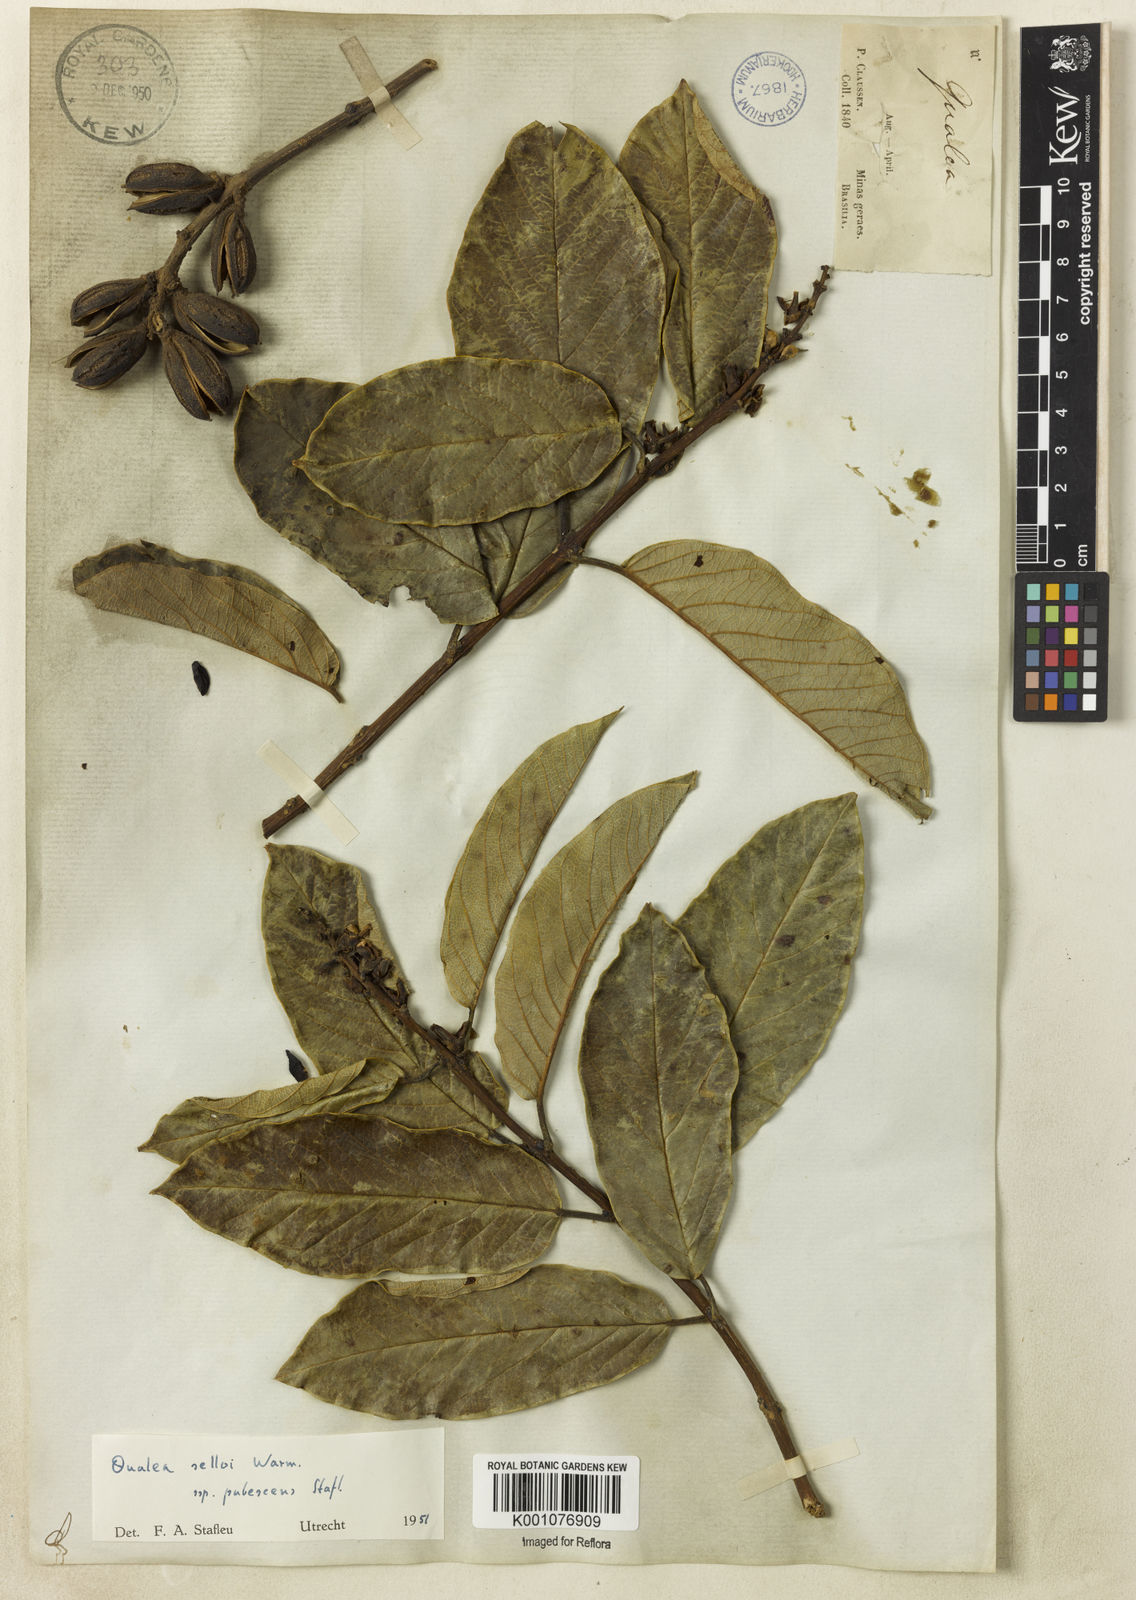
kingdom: Plantae
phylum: Tracheophyta
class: Magnoliopsida
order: Myrtales
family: Vochysiaceae
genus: Qualea
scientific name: Qualea selloi
